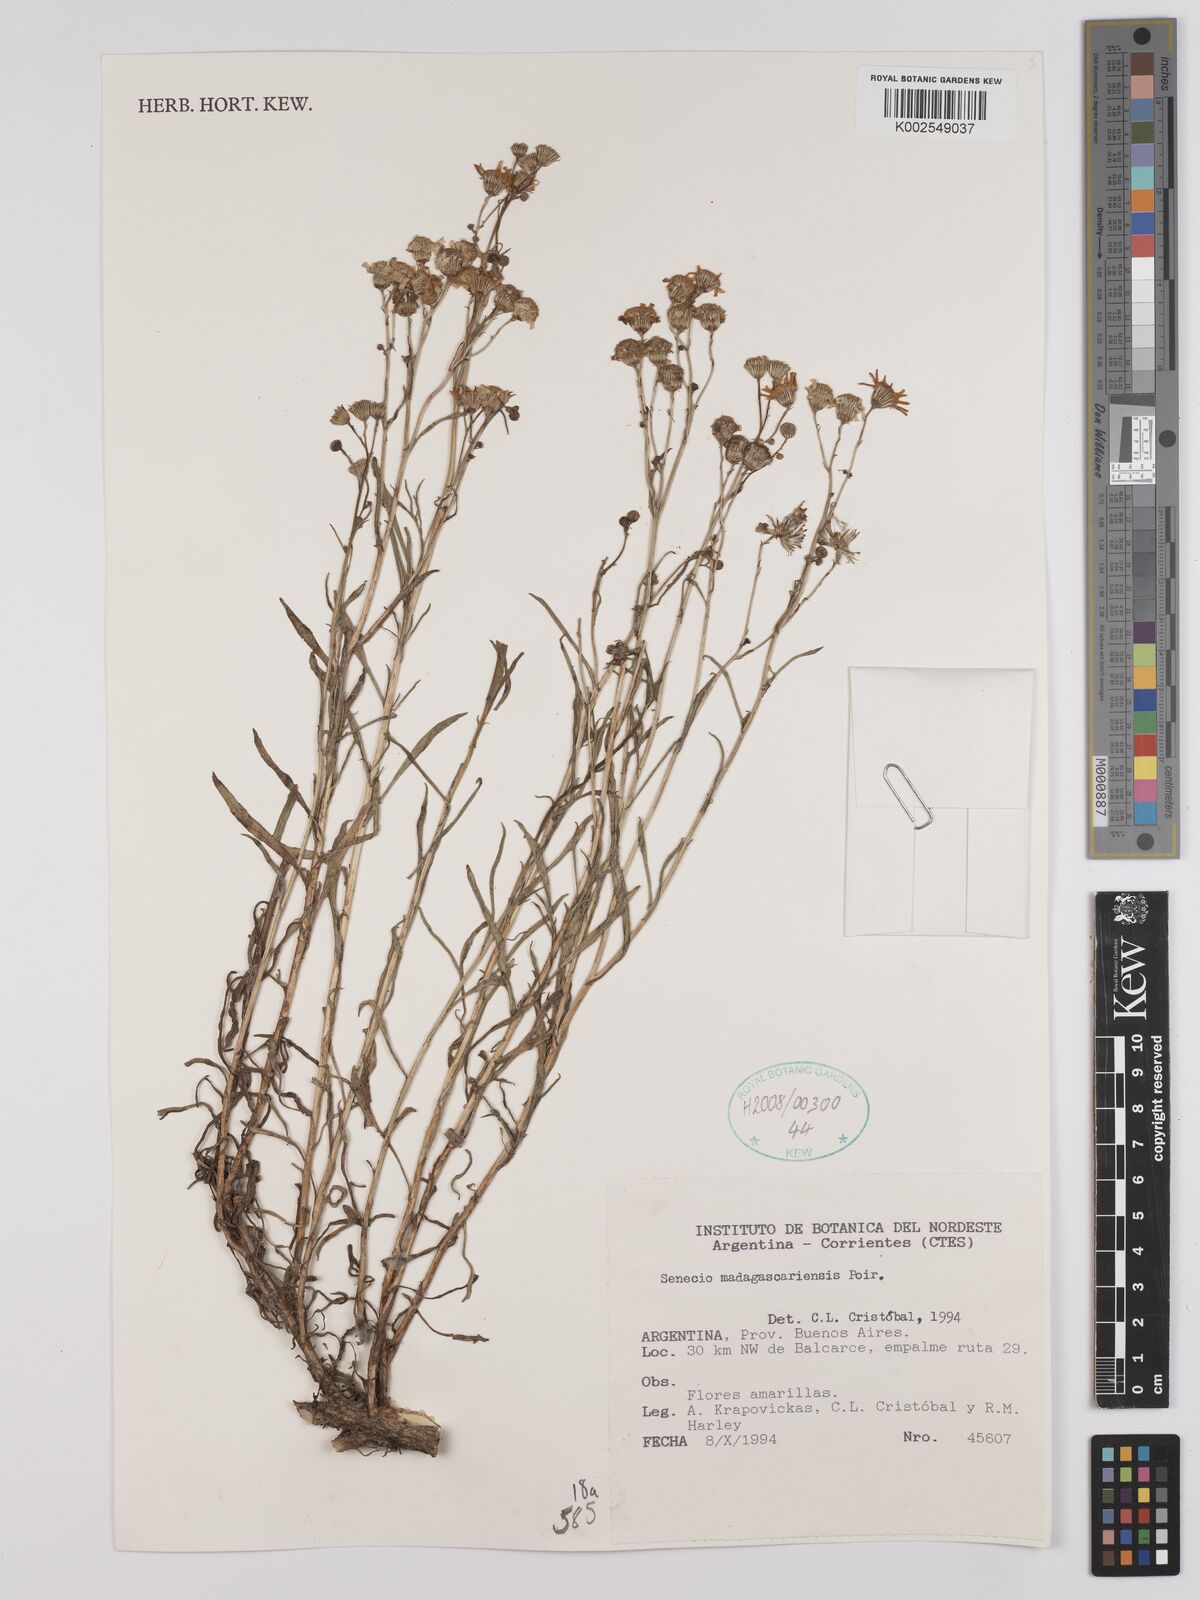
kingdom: Plantae
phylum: Tracheophyta
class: Magnoliopsida
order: Asterales
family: Asteraceae
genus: Senecio
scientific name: Senecio madagascariensis
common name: Madagascar ragwort
